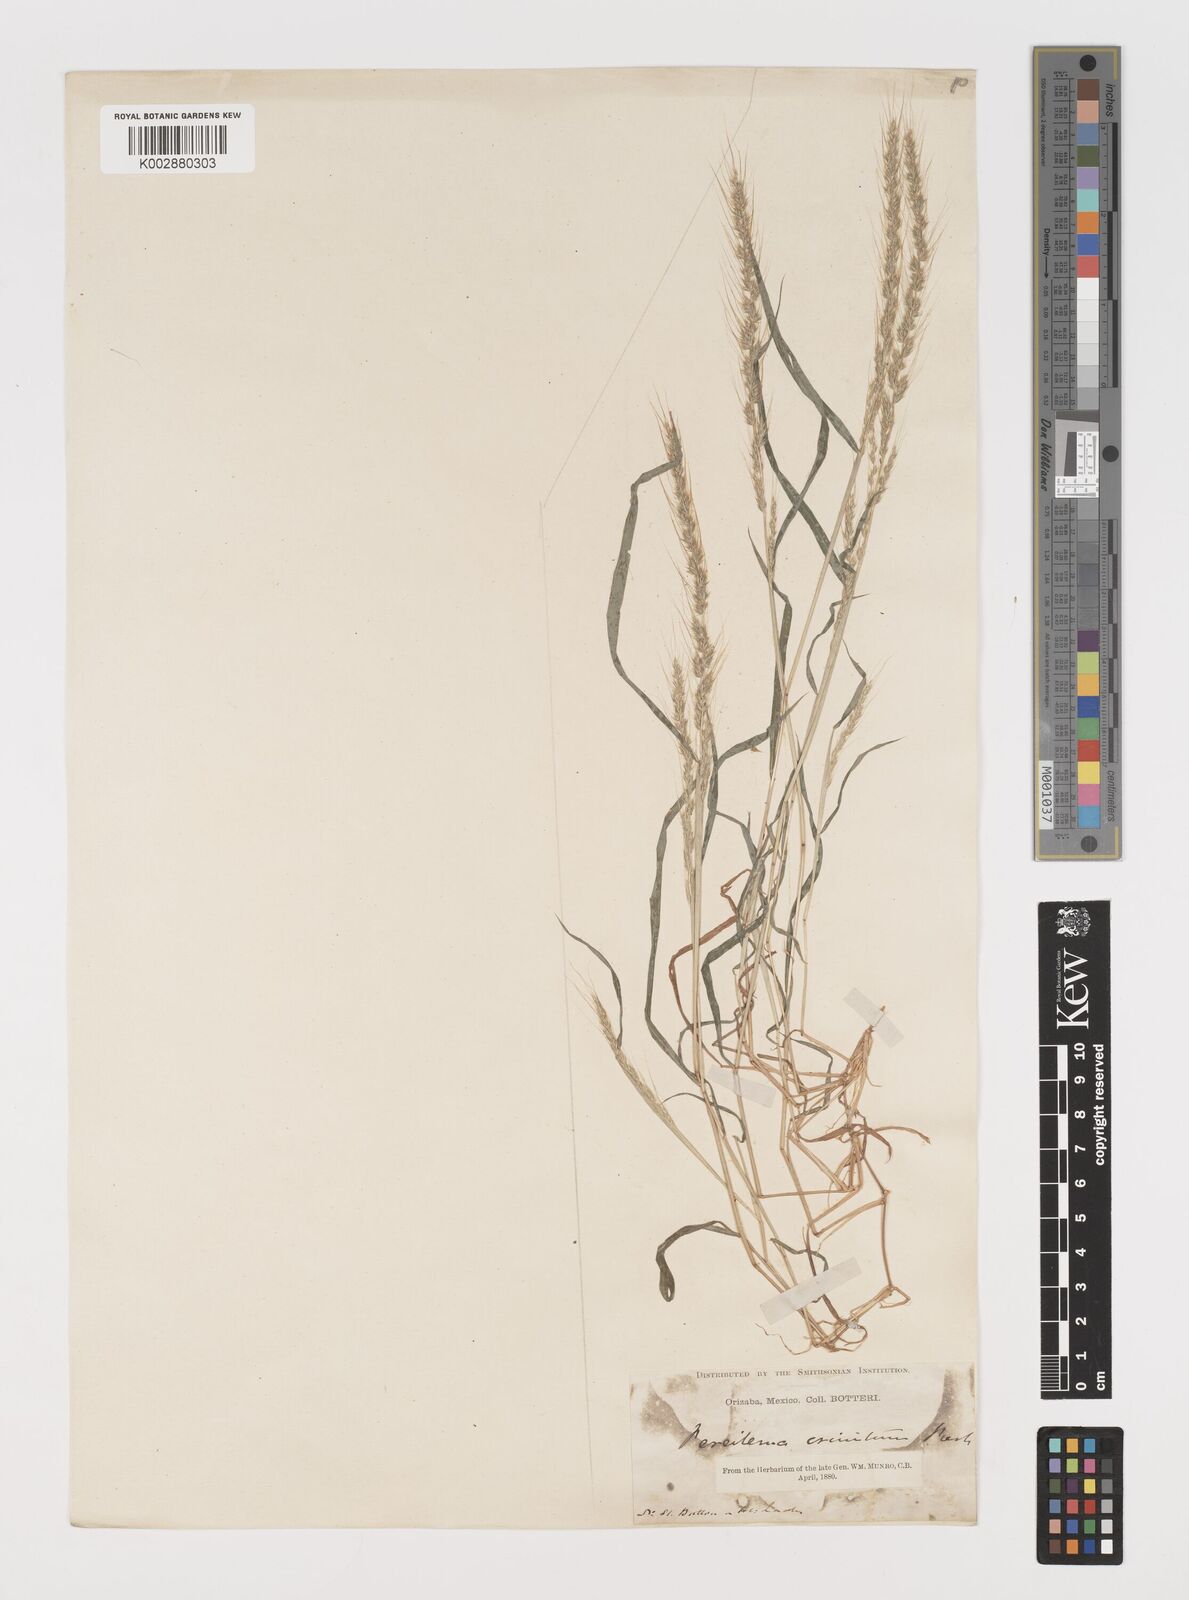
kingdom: Plantae
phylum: Tracheophyta
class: Liliopsida
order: Poales
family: Poaceae
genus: Muhlenbergia
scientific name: Muhlenbergia pereilema
